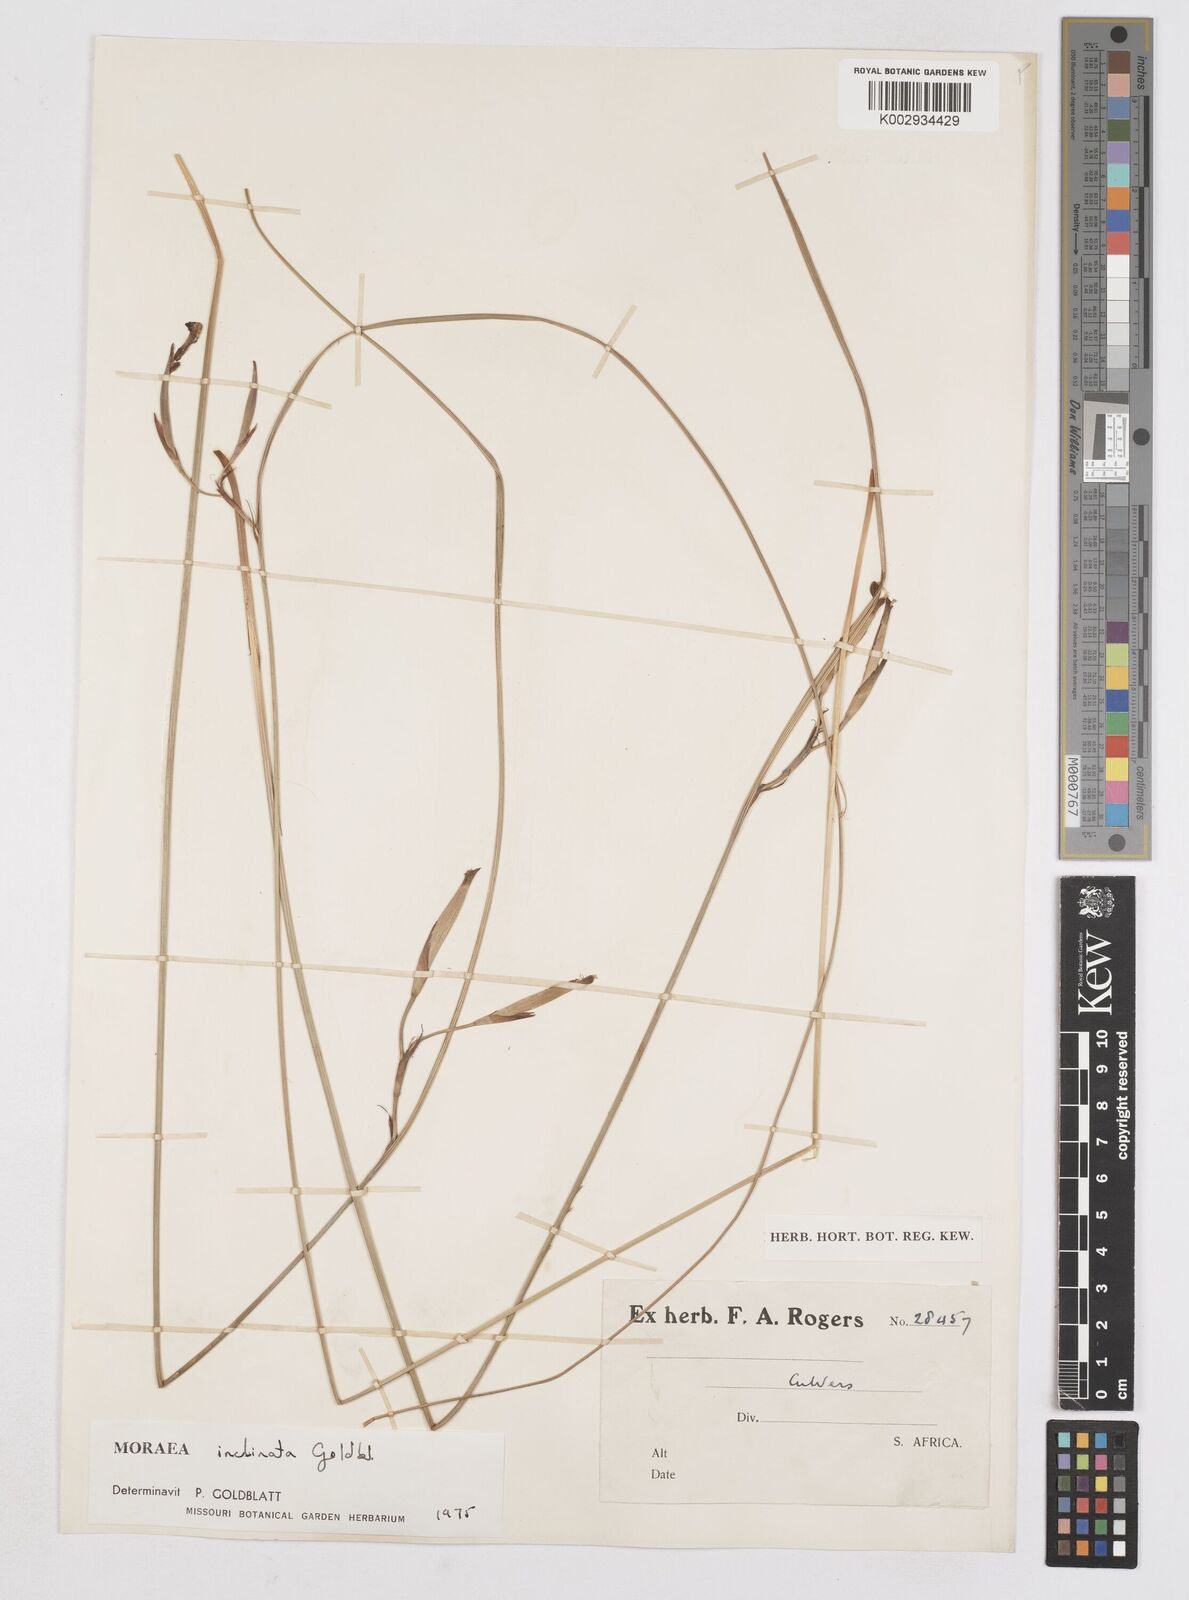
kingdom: Plantae
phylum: Tracheophyta
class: Liliopsida
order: Asparagales
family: Iridaceae
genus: Moraea
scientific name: Moraea inclinata
